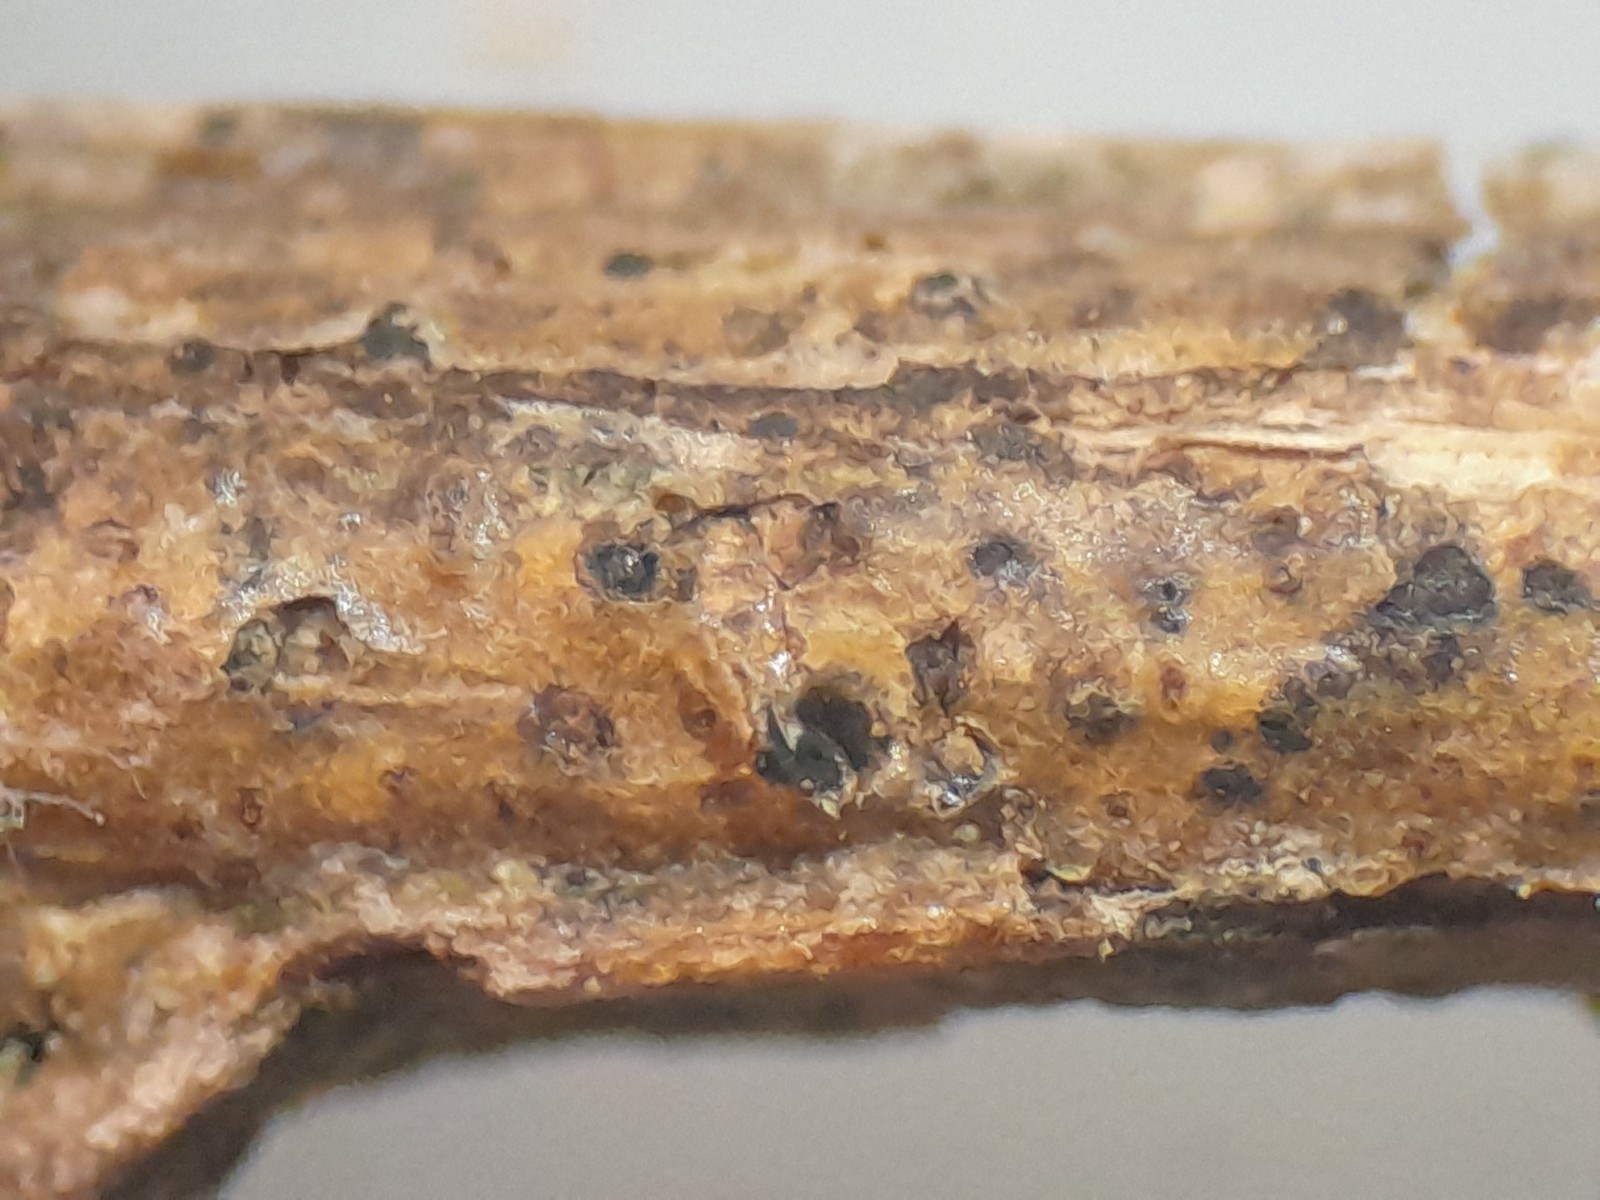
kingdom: Fungi
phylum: Ascomycota
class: Lecanoromycetes
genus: Trullula
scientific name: Trullula melanochlora
